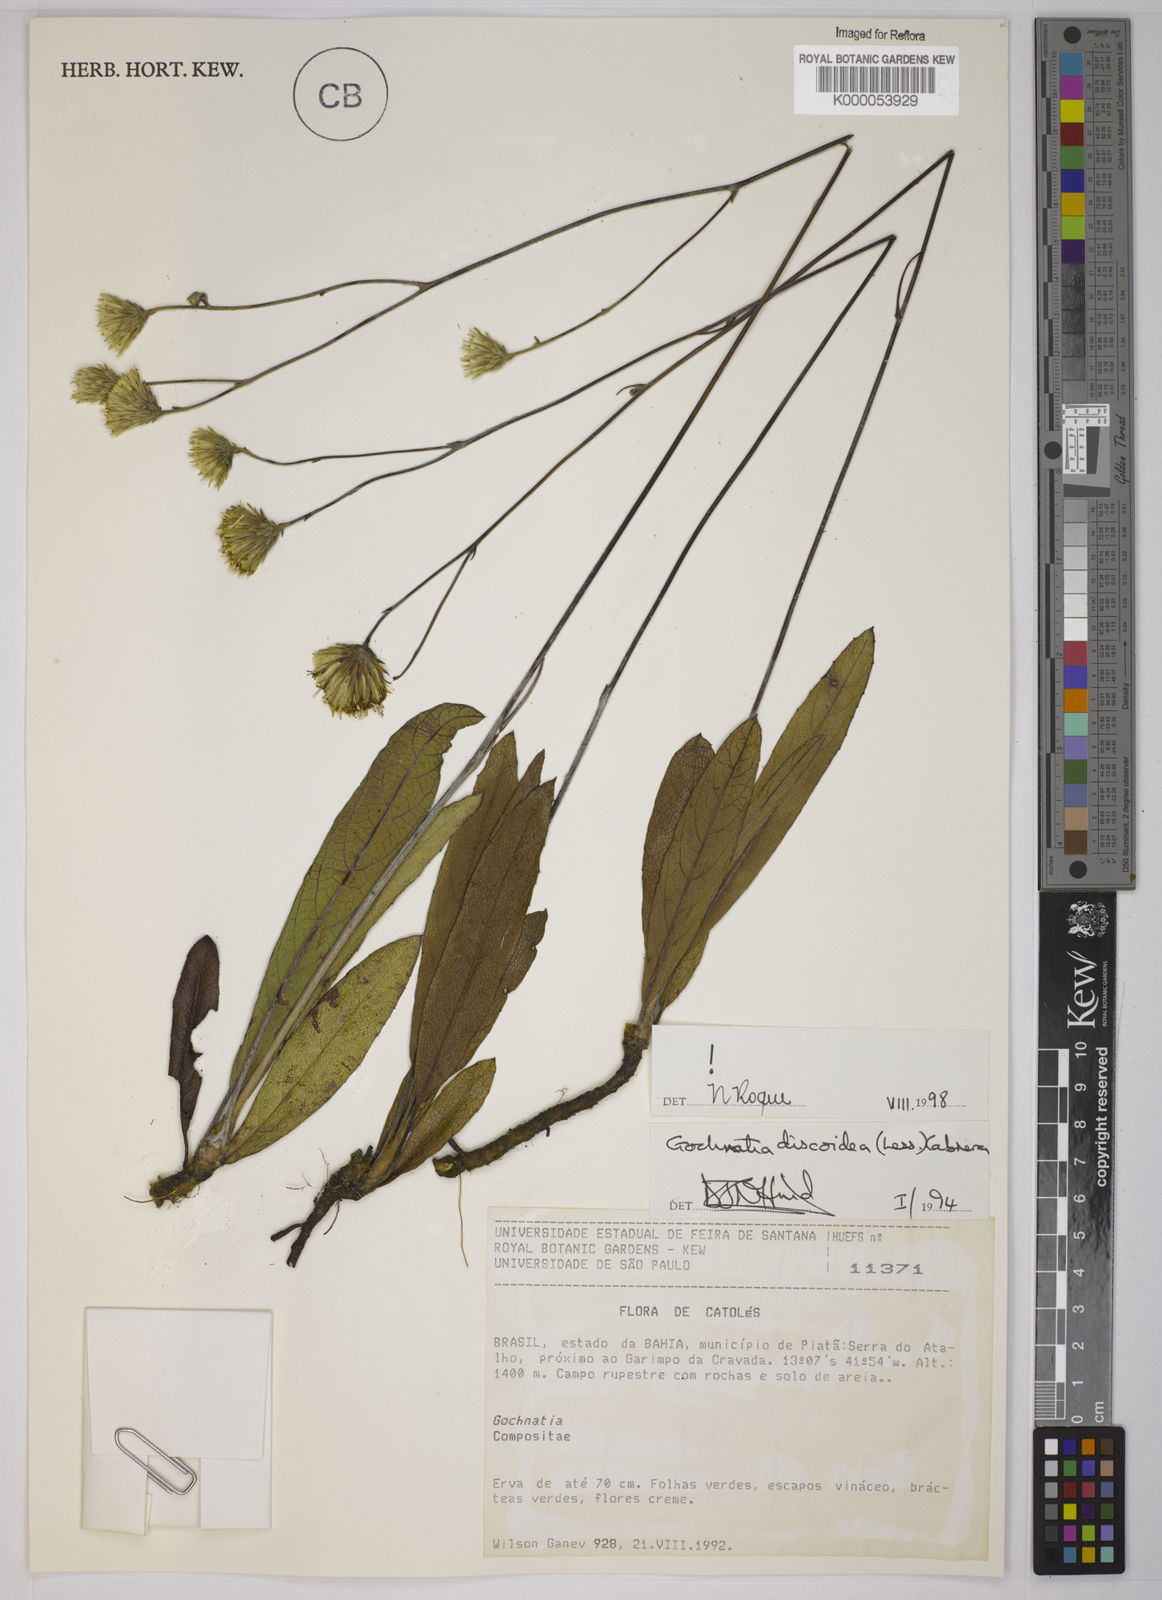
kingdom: Plantae
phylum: Tracheophyta
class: Magnoliopsida
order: Asterales
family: Asteraceae
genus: Richterago
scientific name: Richterago discoidea
